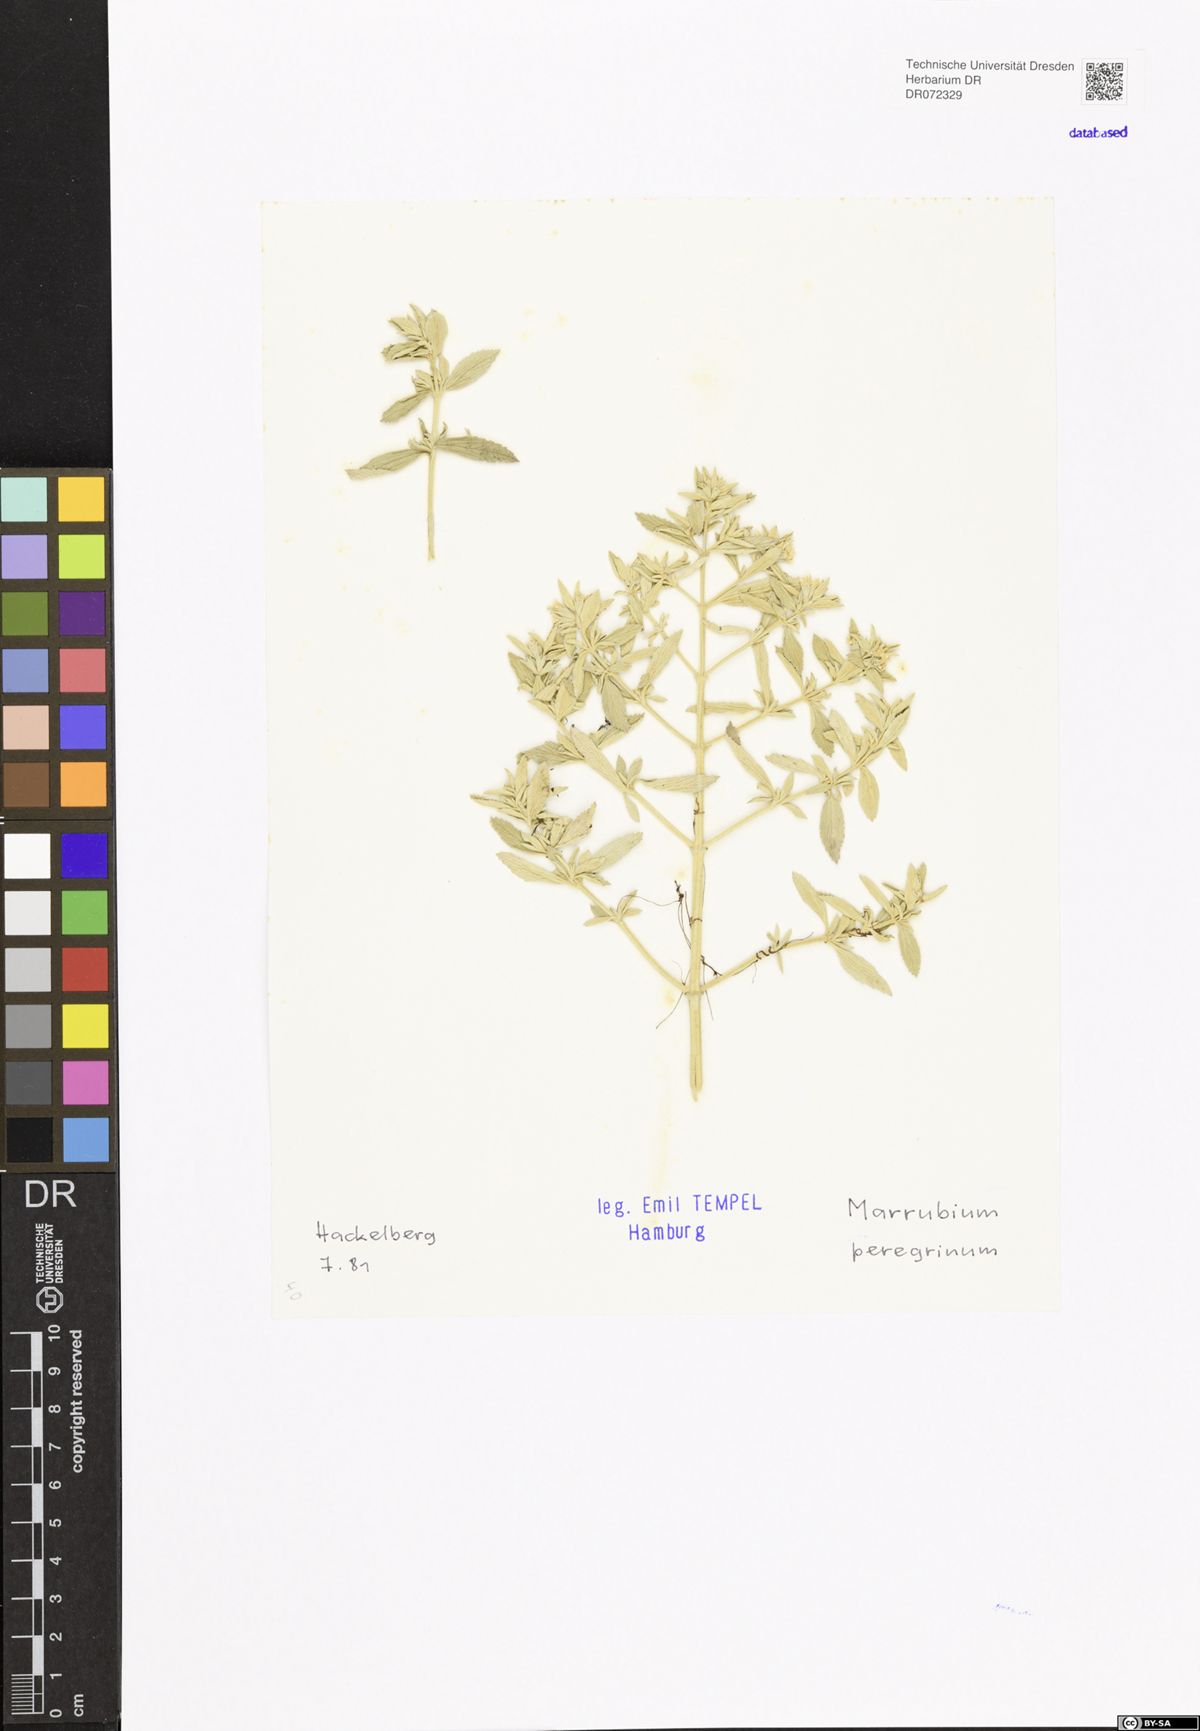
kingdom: Plantae
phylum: Tracheophyta
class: Magnoliopsida
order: Lamiales
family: Lamiaceae
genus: Marrubium
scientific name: Marrubium peregrinum
